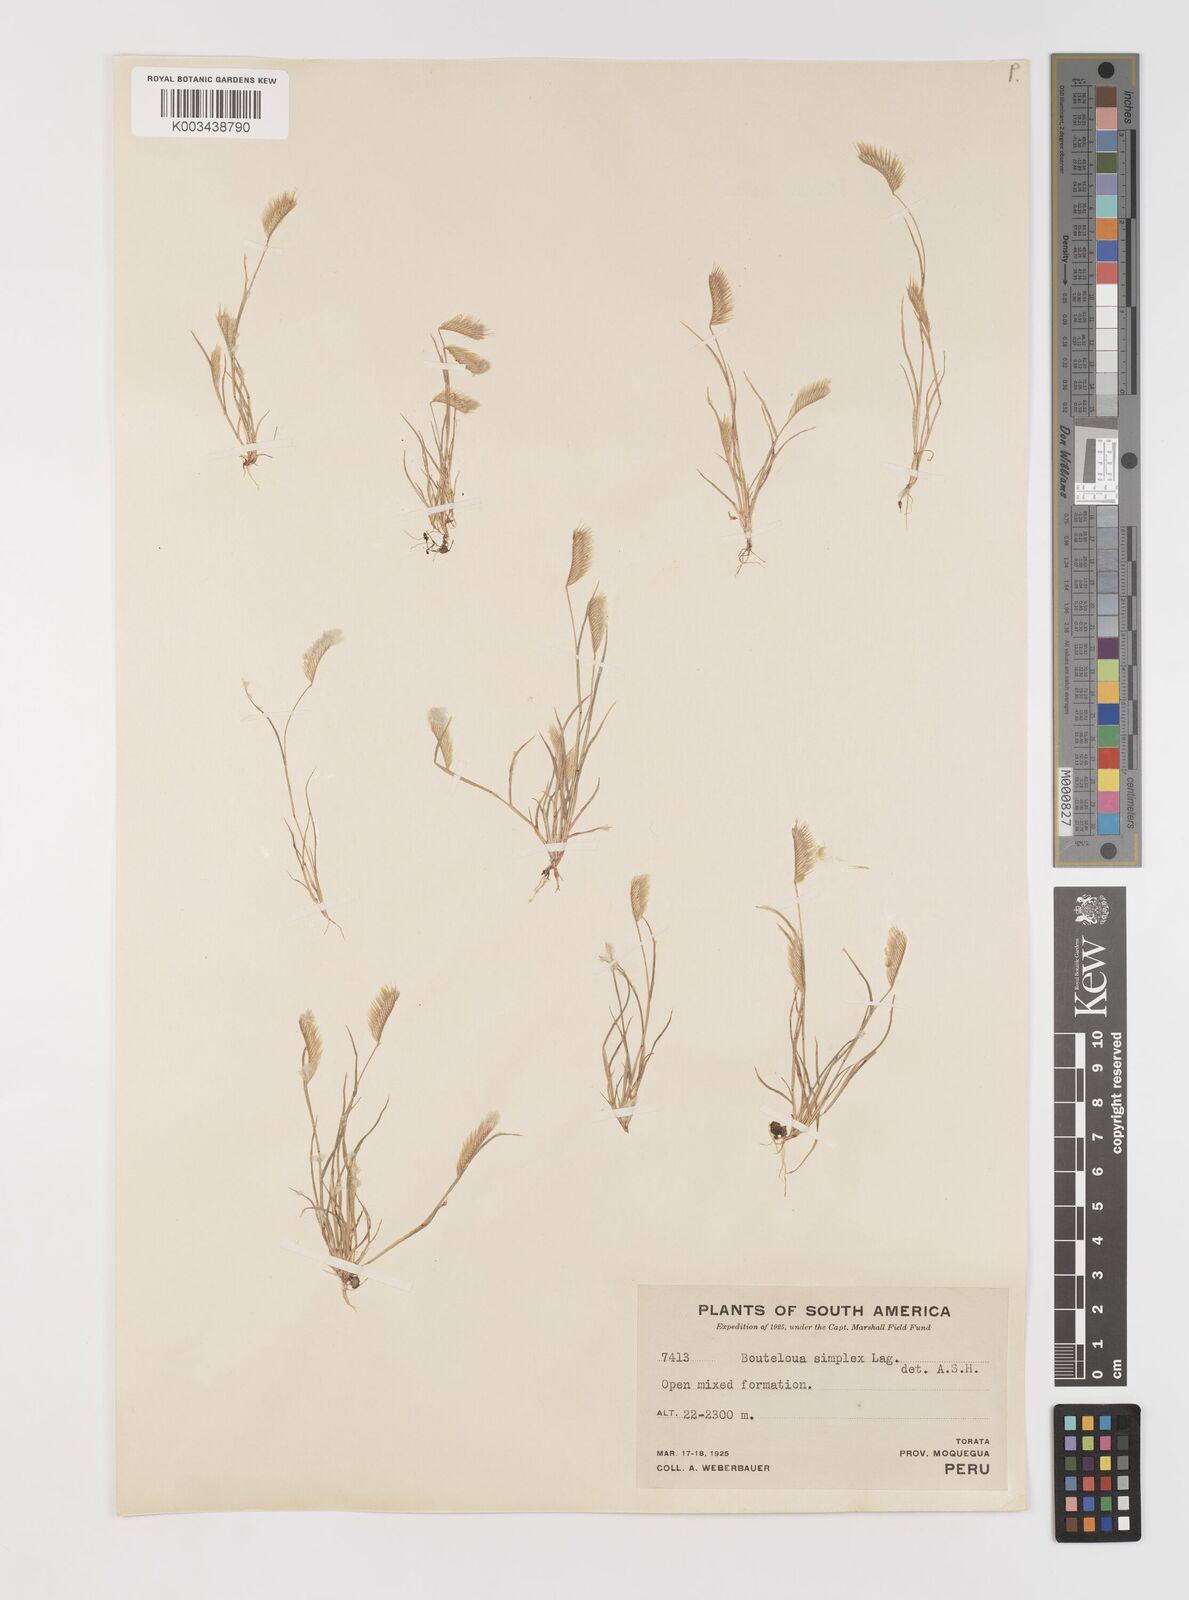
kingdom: Plantae
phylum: Tracheophyta
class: Liliopsida
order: Poales
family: Poaceae
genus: Bouteloua
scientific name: Bouteloua simplex
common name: Mat grama
